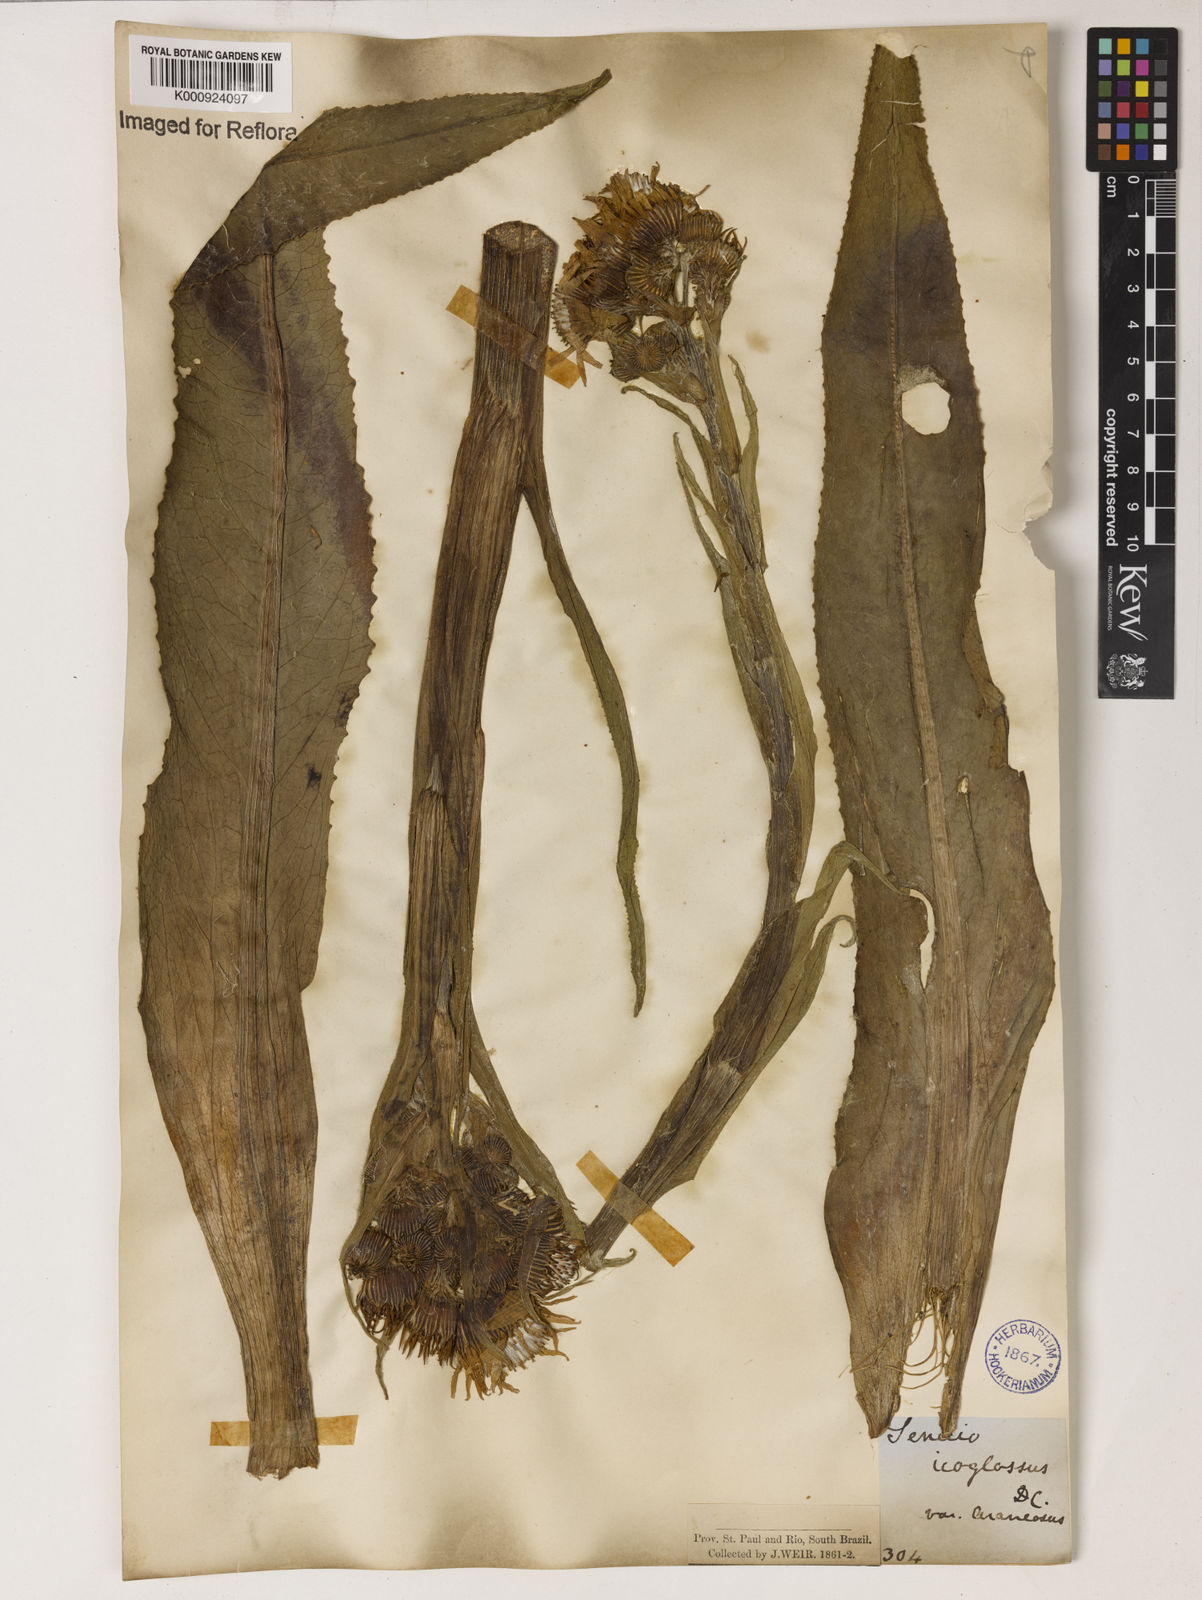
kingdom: Plantae
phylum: Tracheophyta
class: Magnoliopsida
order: Asterales
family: Asteraceae
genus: Senecio
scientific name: Senecio icoglossus
